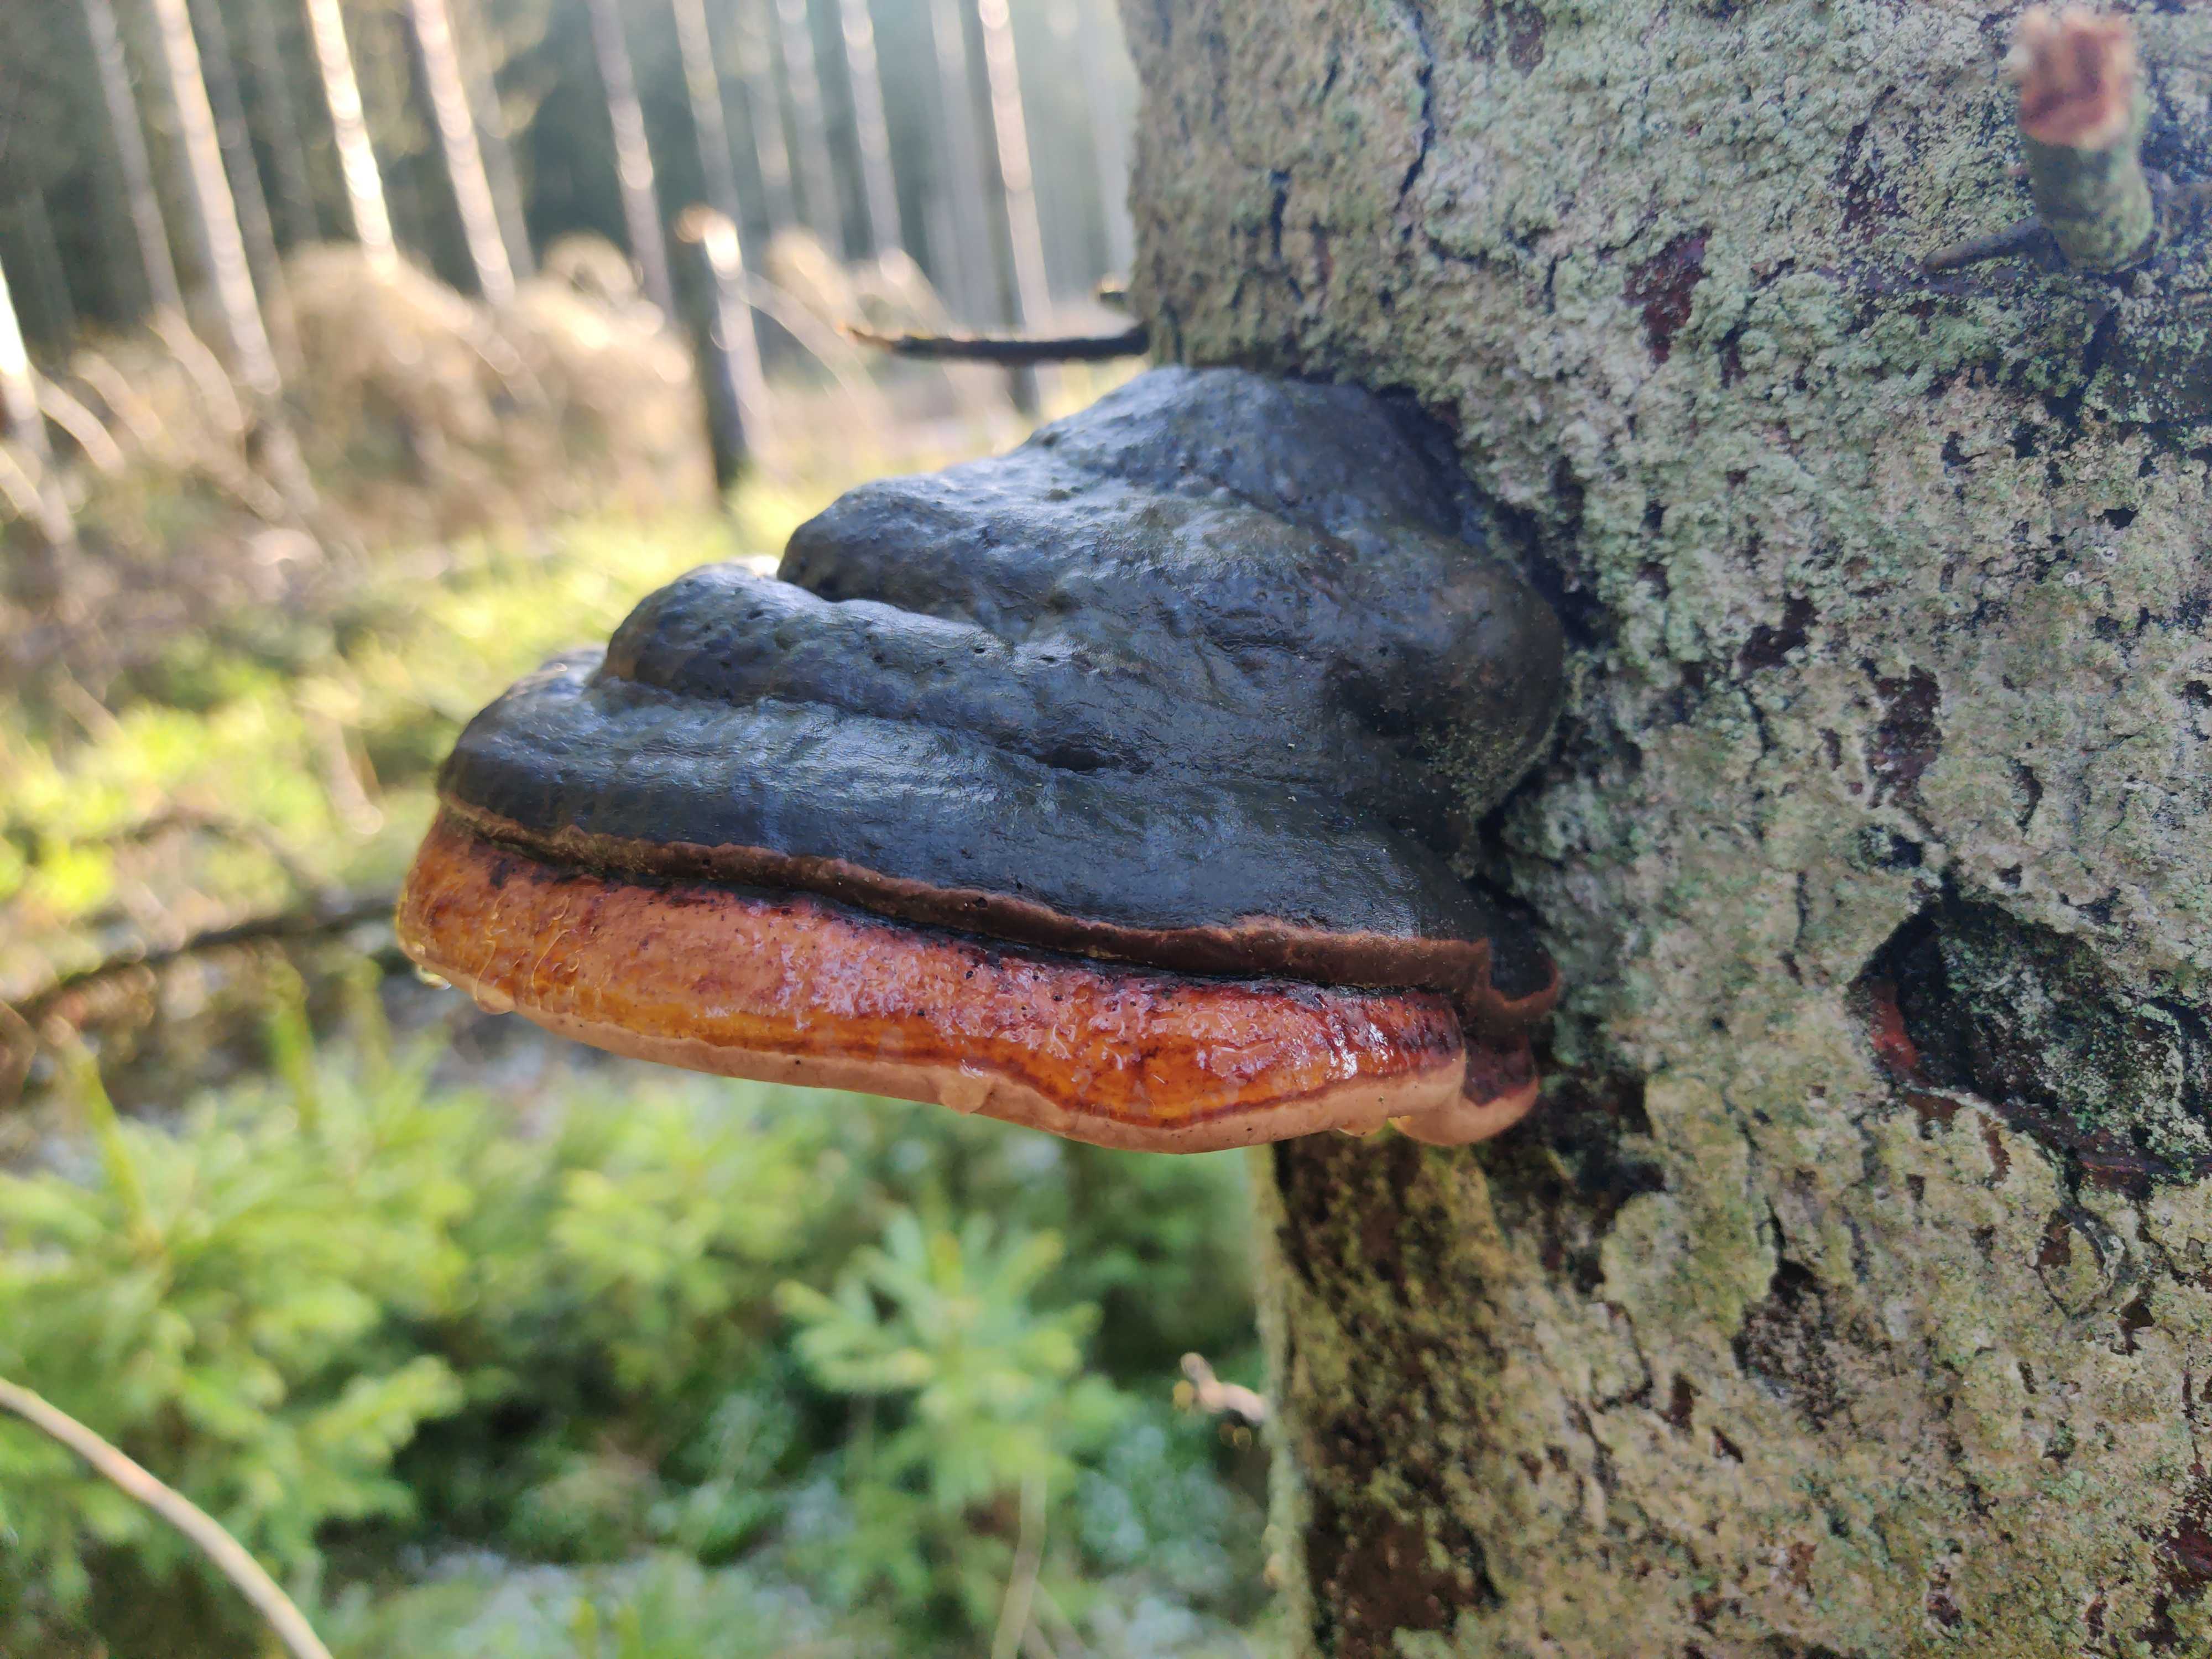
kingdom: Fungi
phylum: Basidiomycota
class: Agaricomycetes
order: Polyporales
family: Fomitopsidaceae
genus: Fomitopsis
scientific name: Fomitopsis pinicola
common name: randbæltet hovporesvamp
